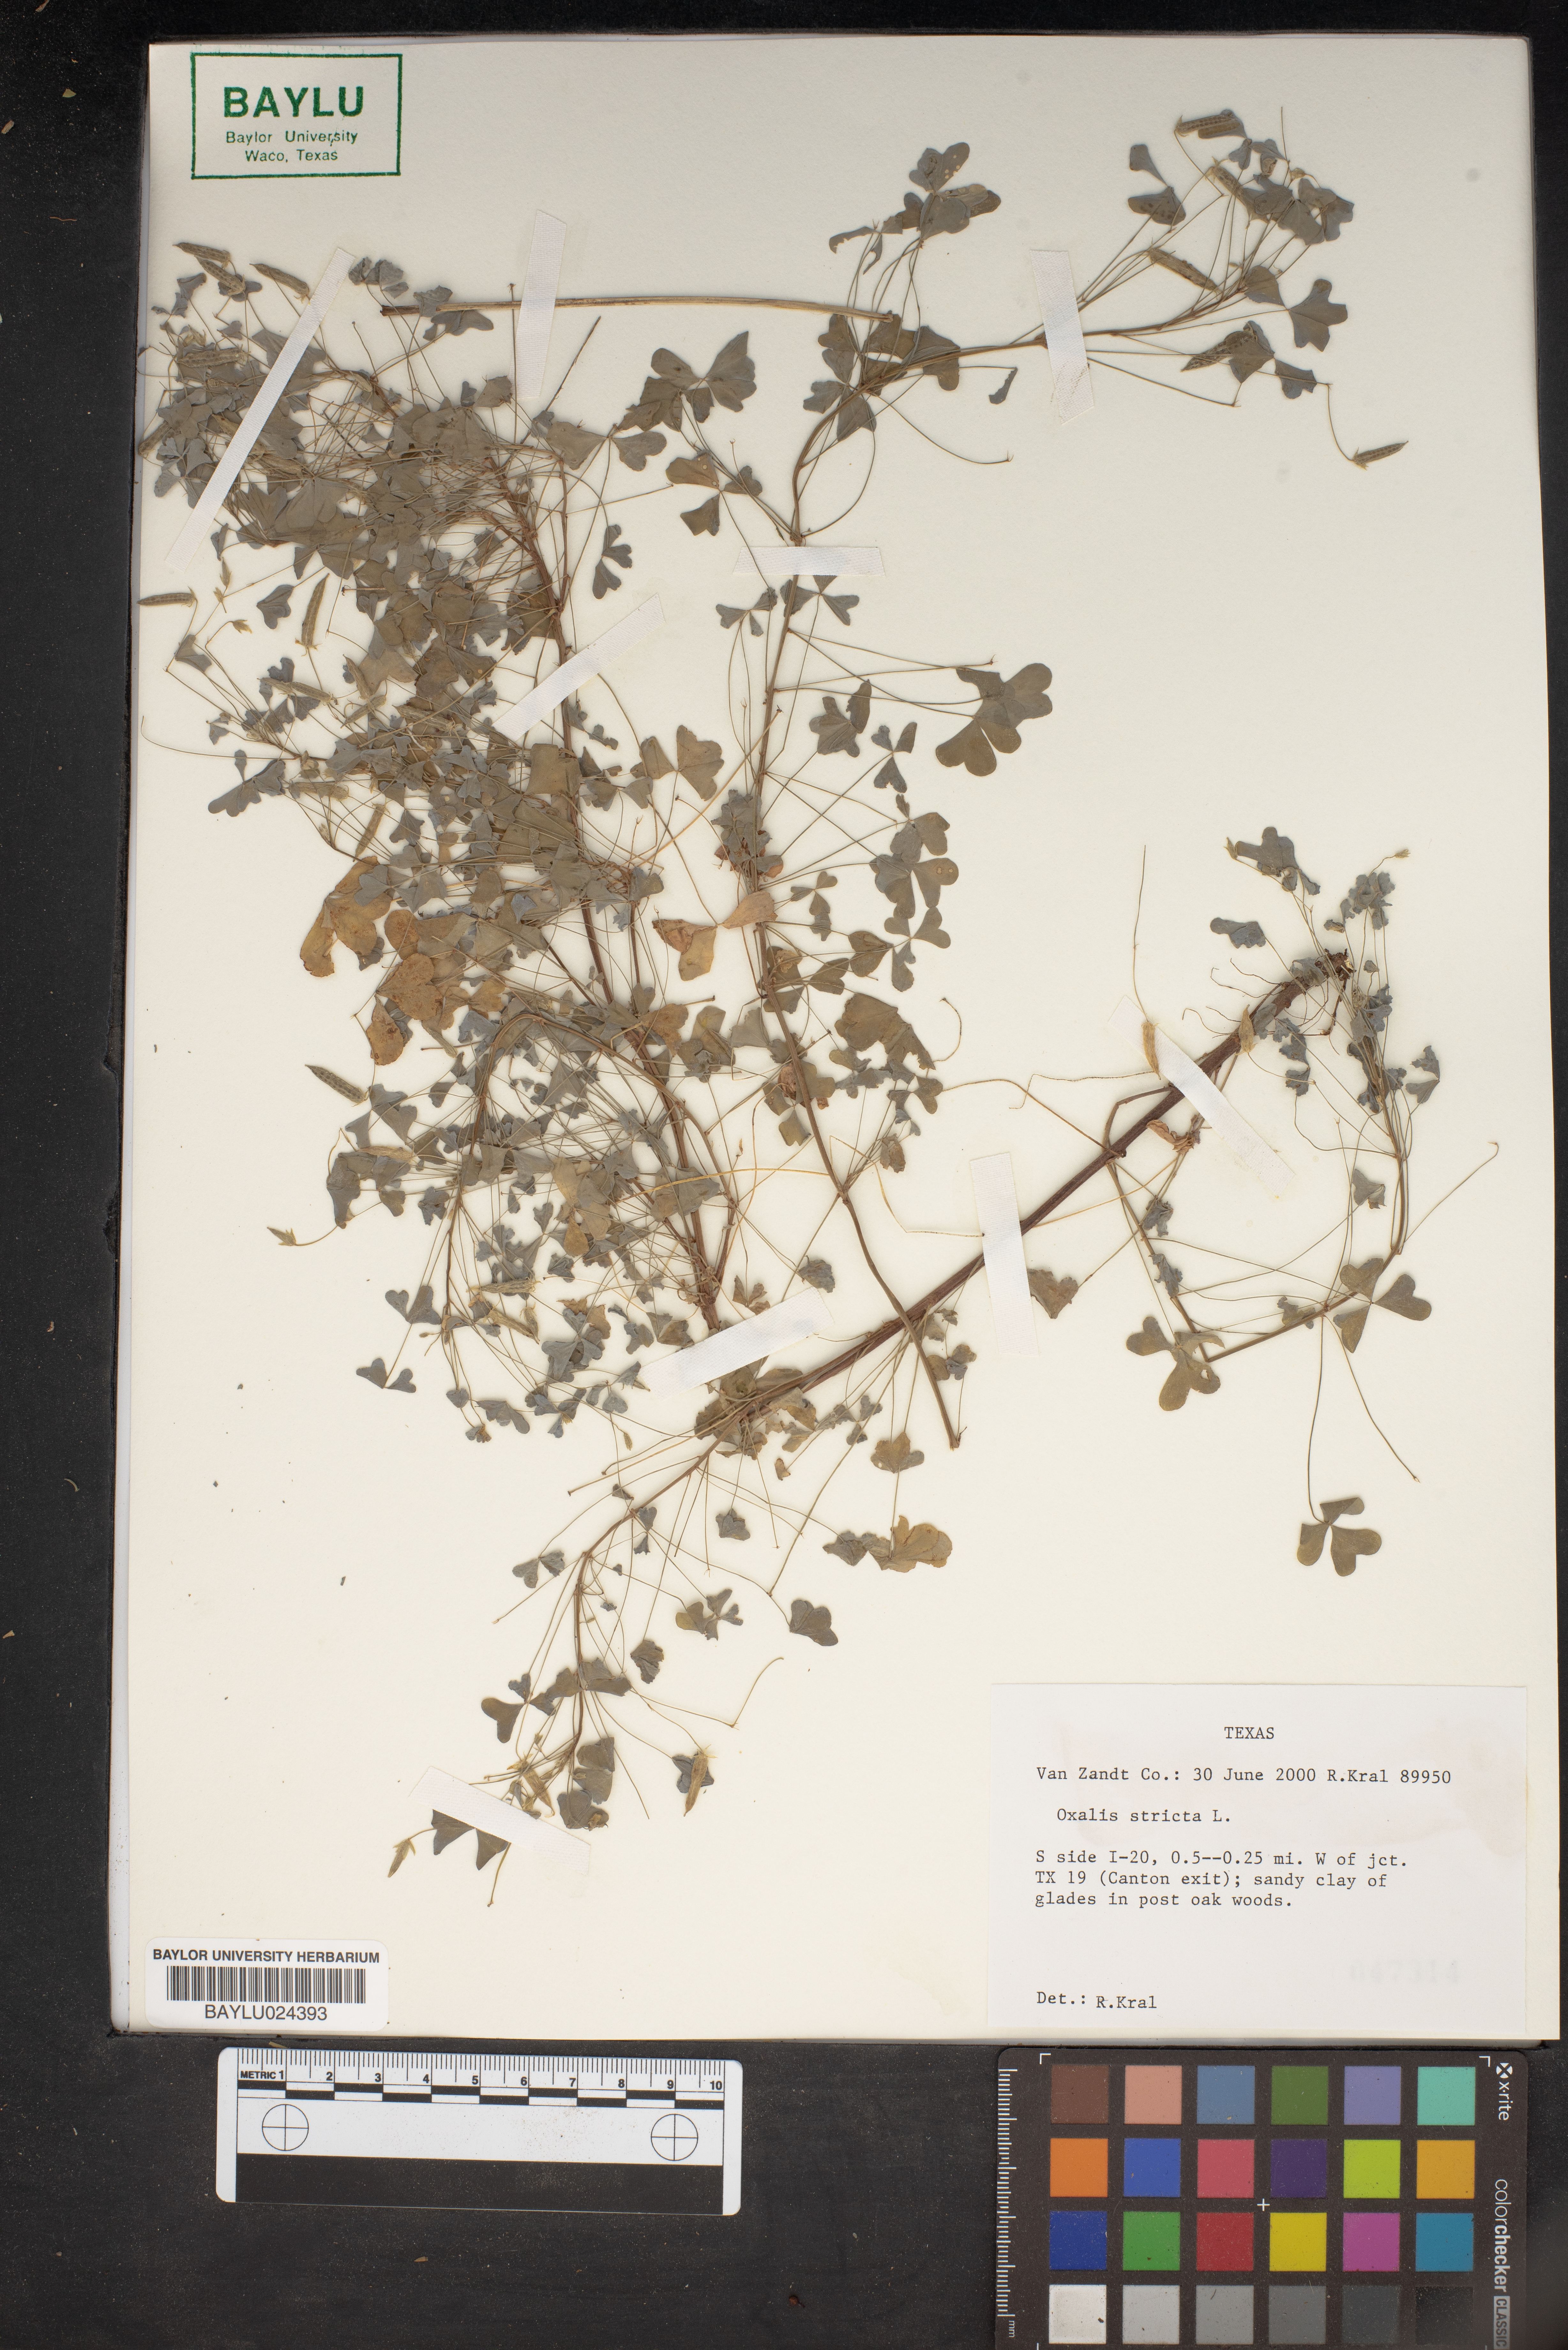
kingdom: Plantae
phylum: Tracheophyta
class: Magnoliopsida
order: Oxalidales
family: Oxalidaceae
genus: Oxalis
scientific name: Oxalis stricta
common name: Upright yellow-sorrel
